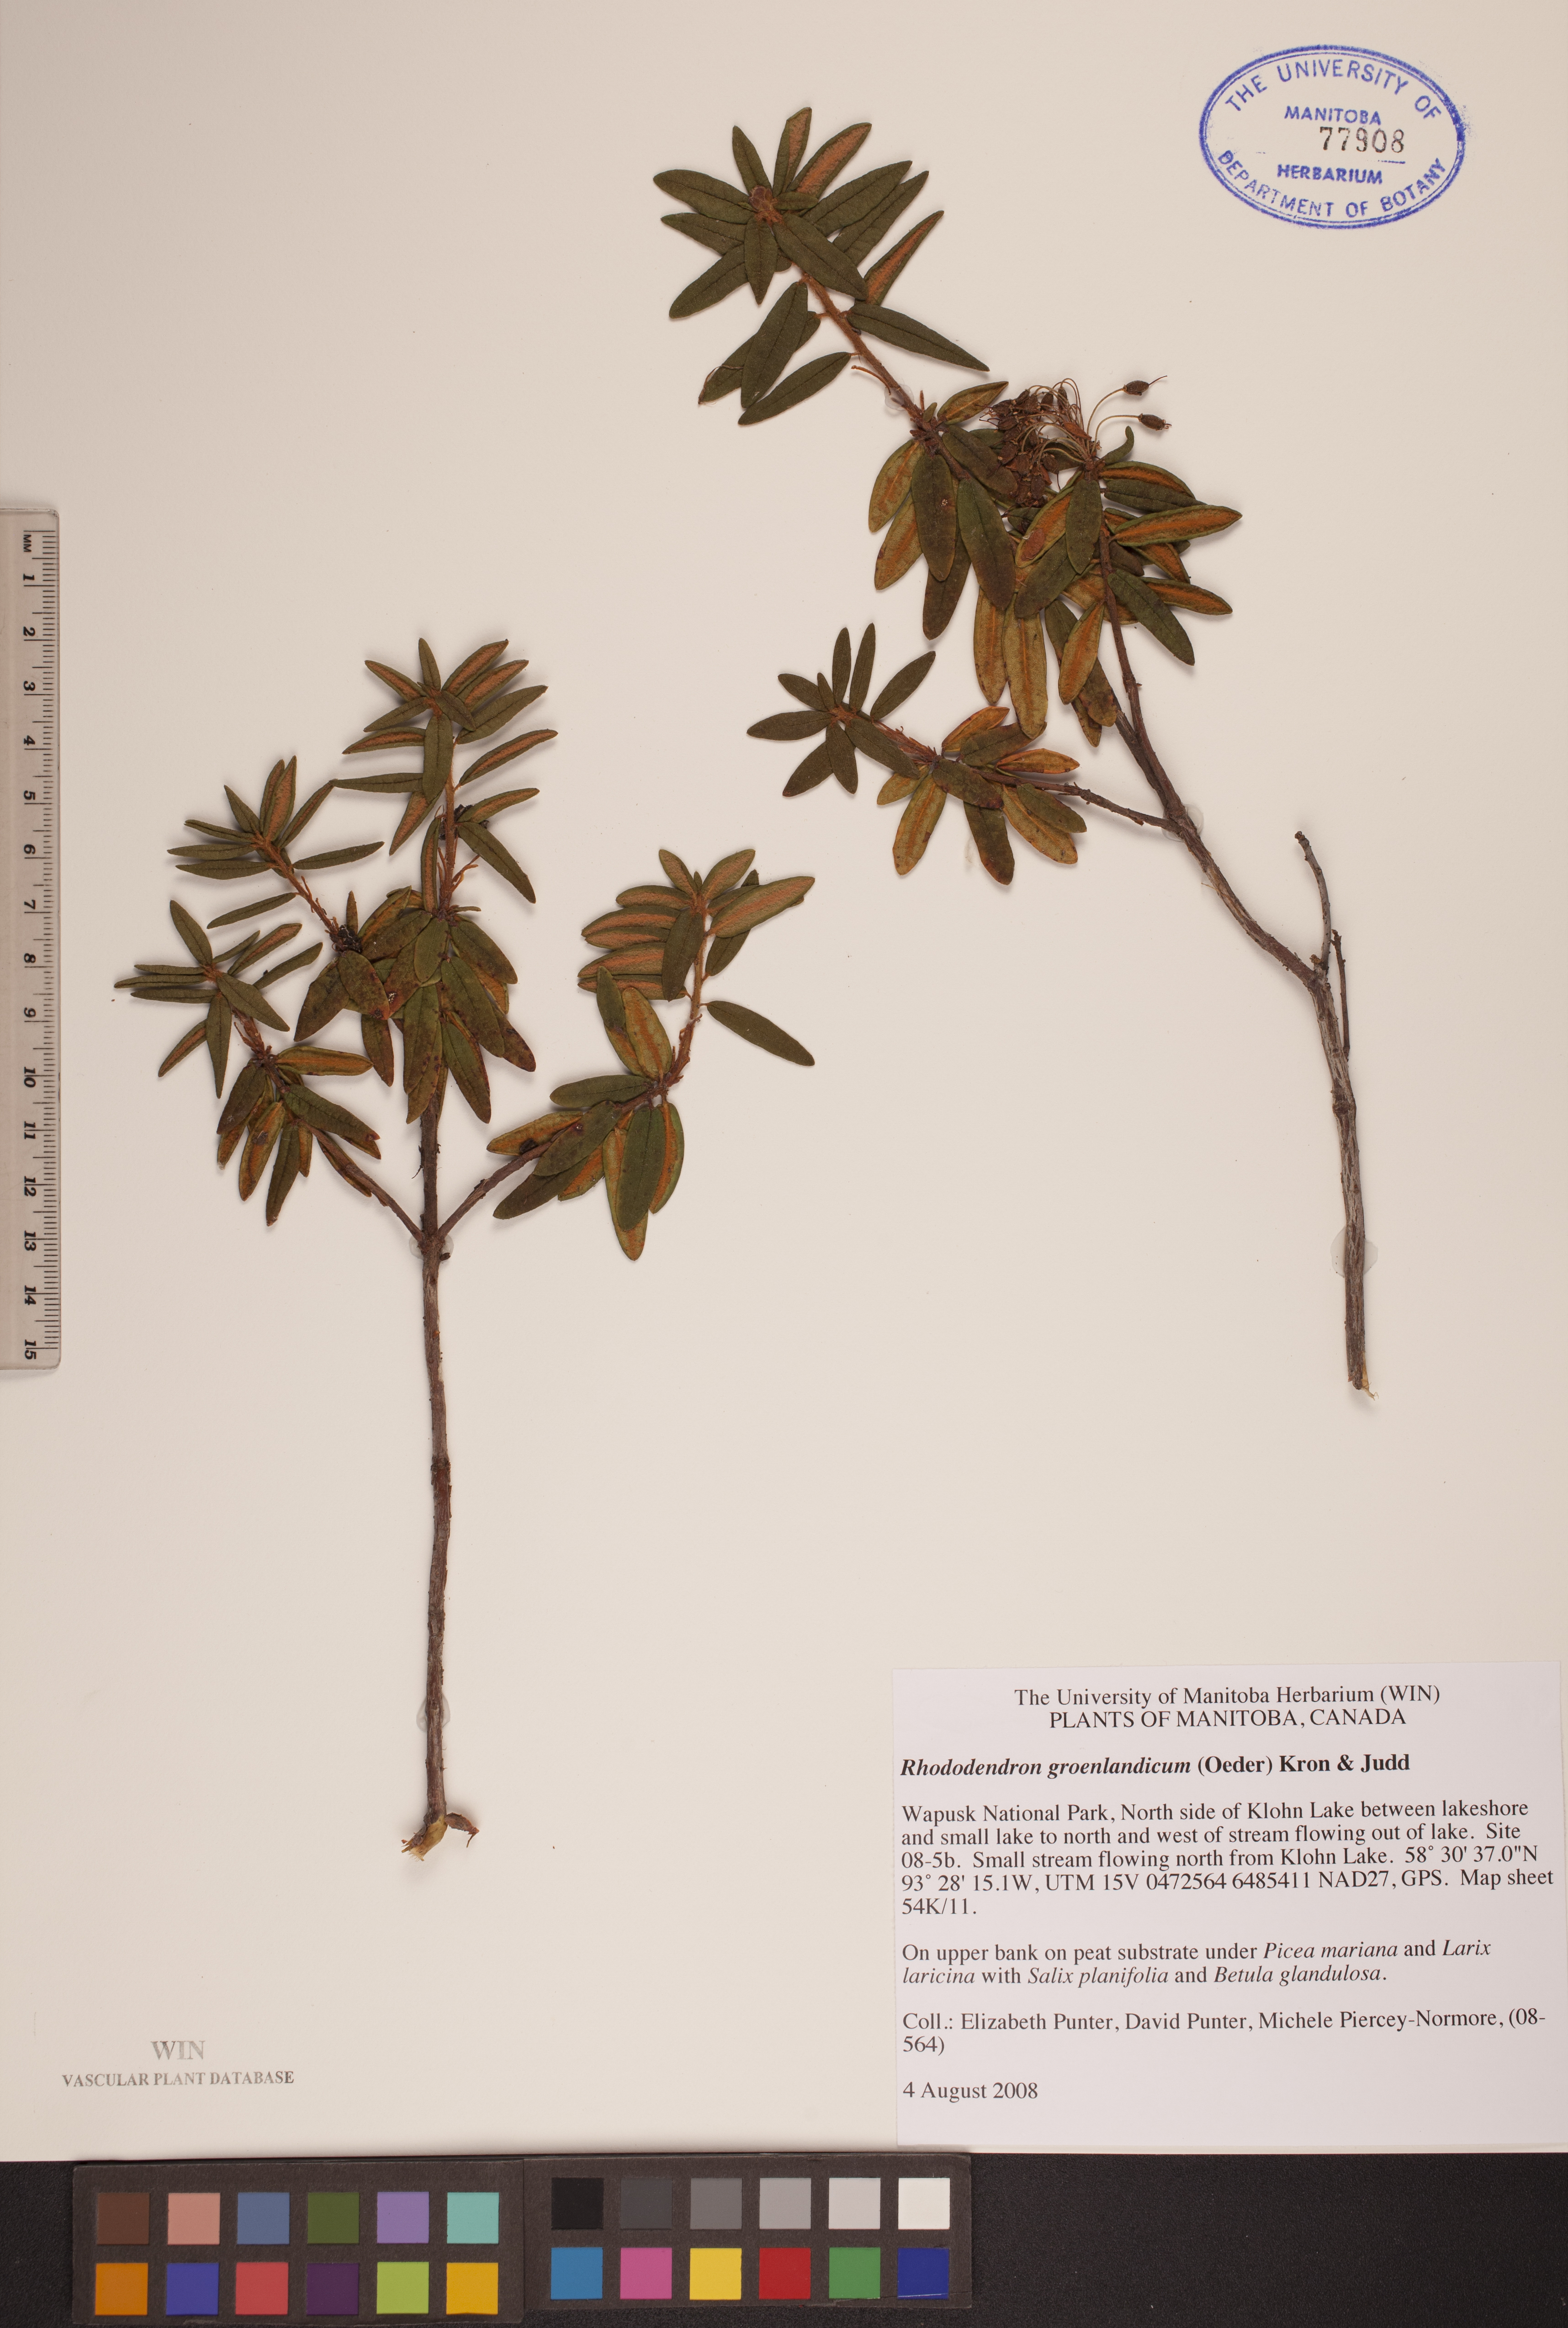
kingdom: Plantae
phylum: Tracheophyta
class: Magnoliopsida
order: Ericales
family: Ericaceae
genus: Rhododendron
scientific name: Rhododendron groenlandicum
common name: Bog labrador tea
